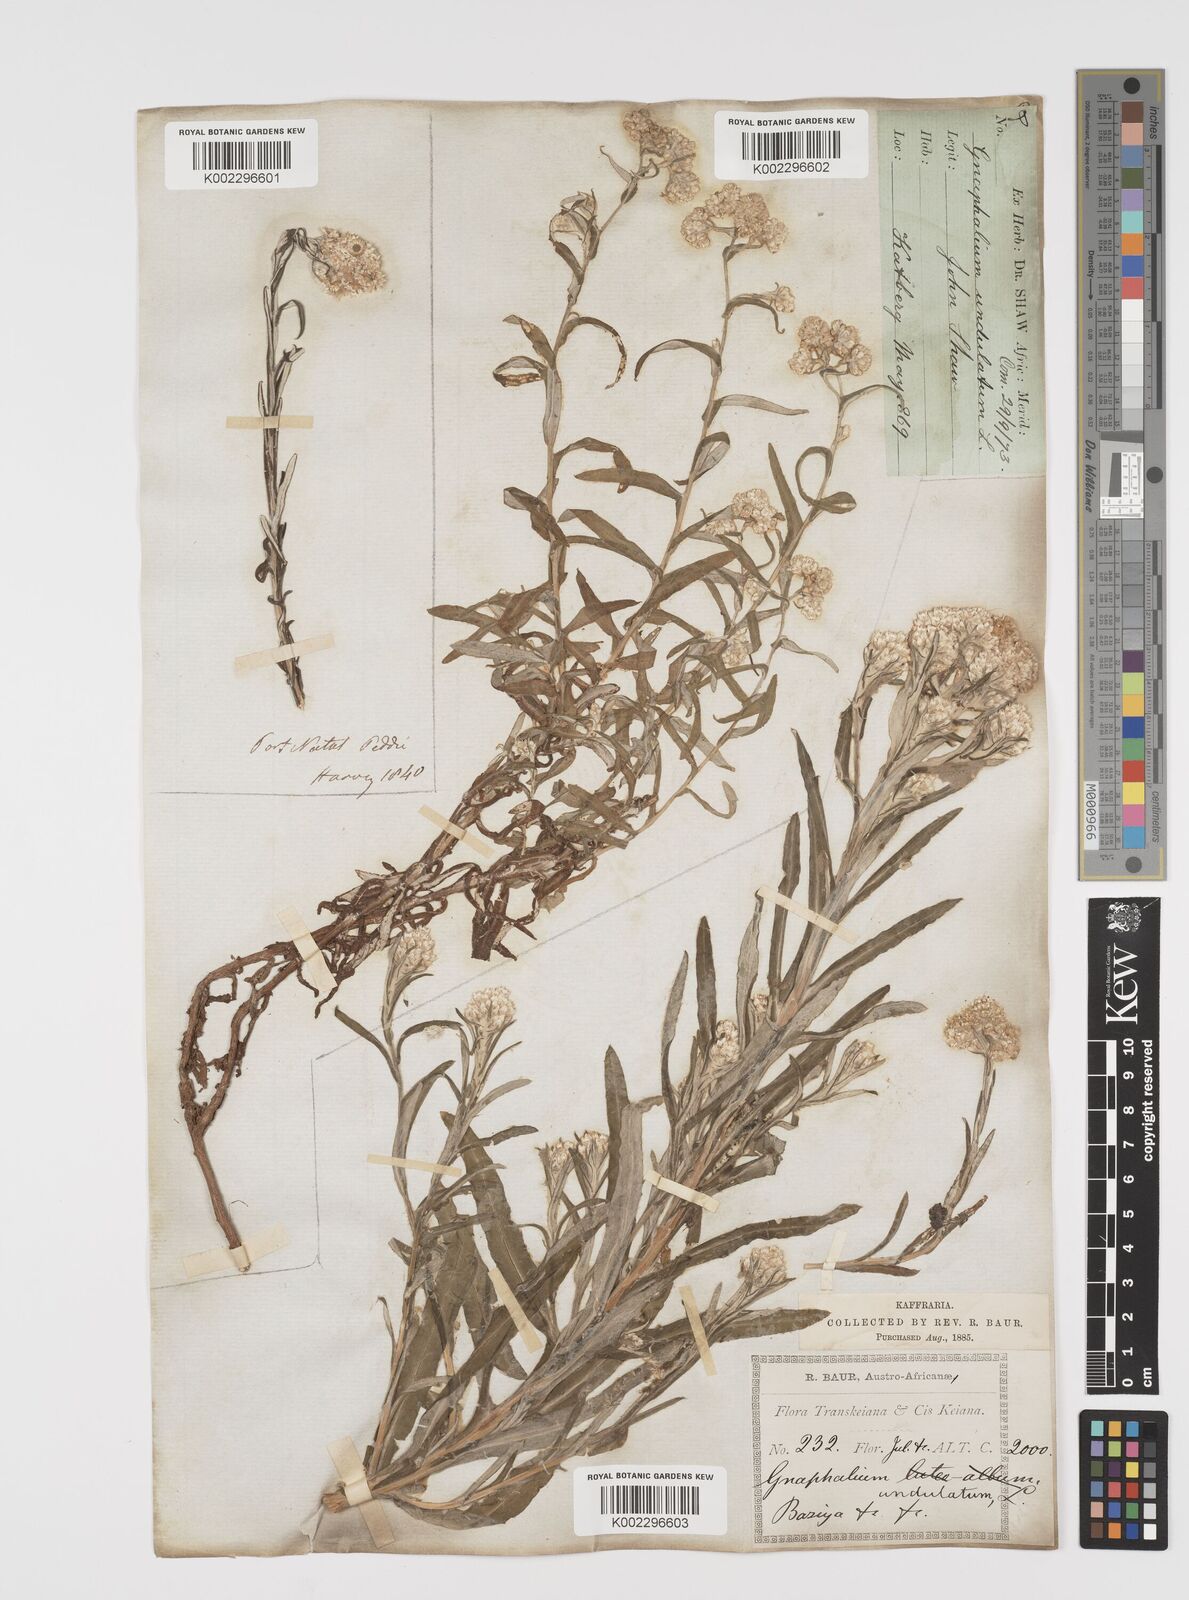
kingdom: Plantae
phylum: Tracheophyta
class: Magnoliopsida
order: Asterales
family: Asteraceae
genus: Pseudognaphalium
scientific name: Pseudognaphalium undulatum
